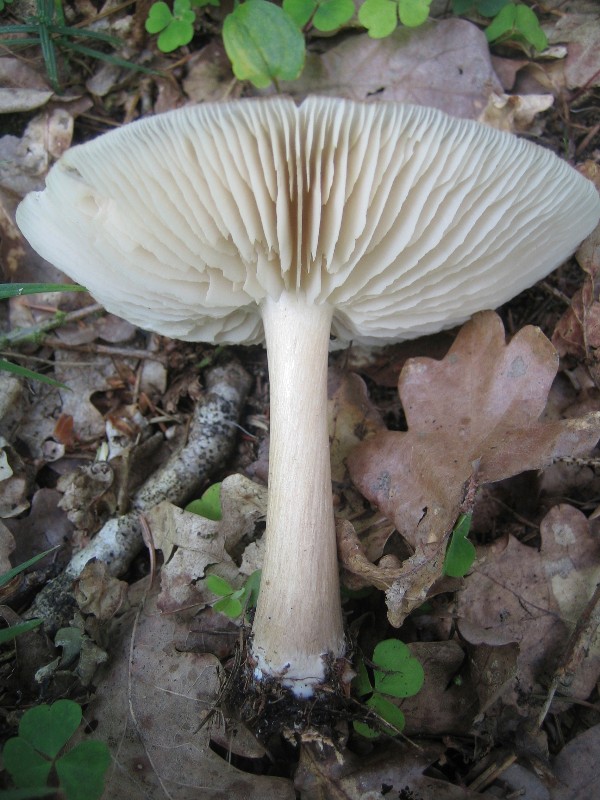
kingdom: Fungi
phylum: Basidiomycota
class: Agaricomycetes
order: Agaricales
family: Tricholomataceae
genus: Megacollybia
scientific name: Megacollybia platyphylla
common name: bredbladet væbnerhat
